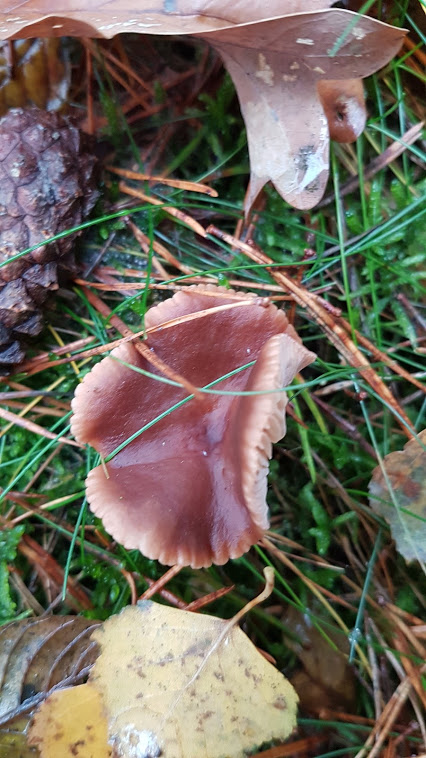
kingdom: Fungi
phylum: Basidiomycota
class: Agaricomycetes
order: Russulales
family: Russulaceae
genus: Lactarius
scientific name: Lactarius tabidus
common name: rynket mælkehat
